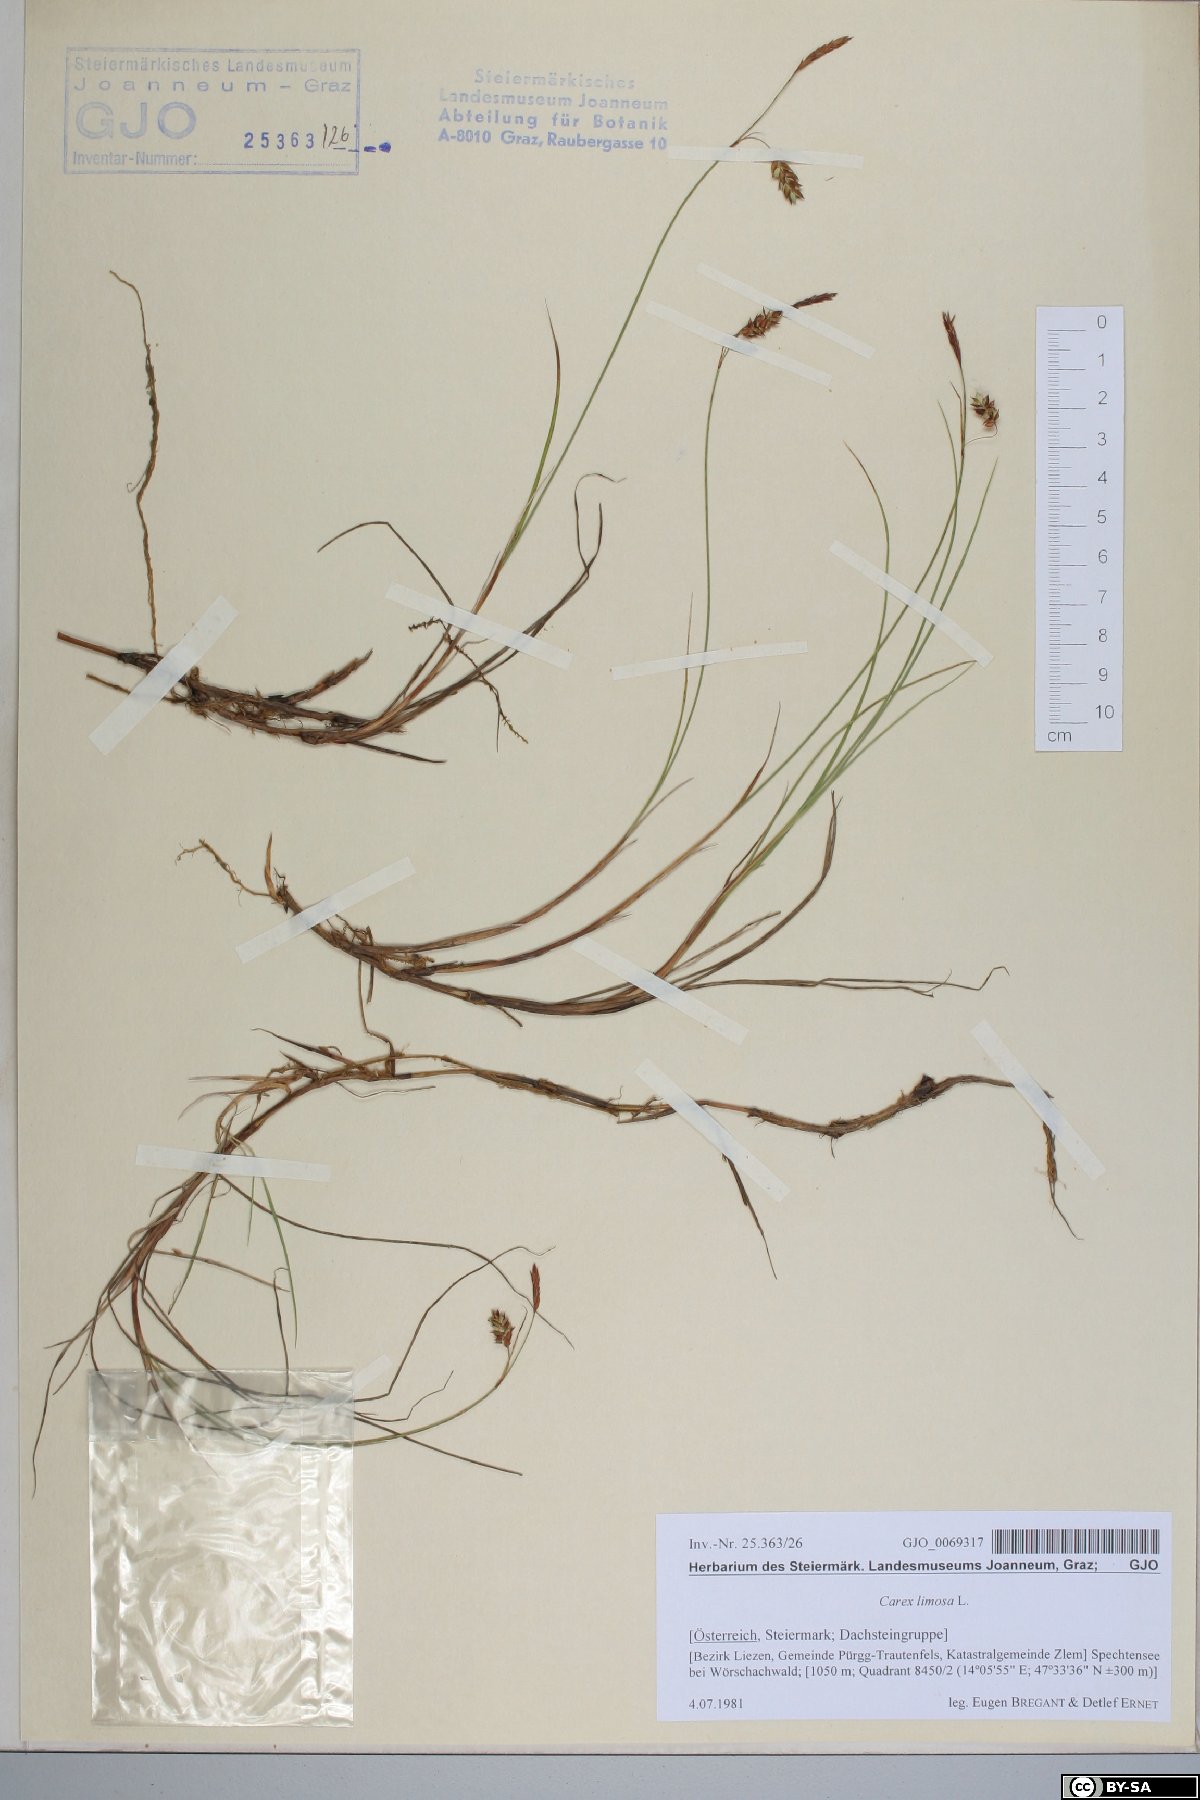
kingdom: Plantae
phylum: Tracheophyta
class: Liliopsida
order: Poales
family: Cyperaceae
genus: Carex
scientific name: Carex limosa
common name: Bog sedge
